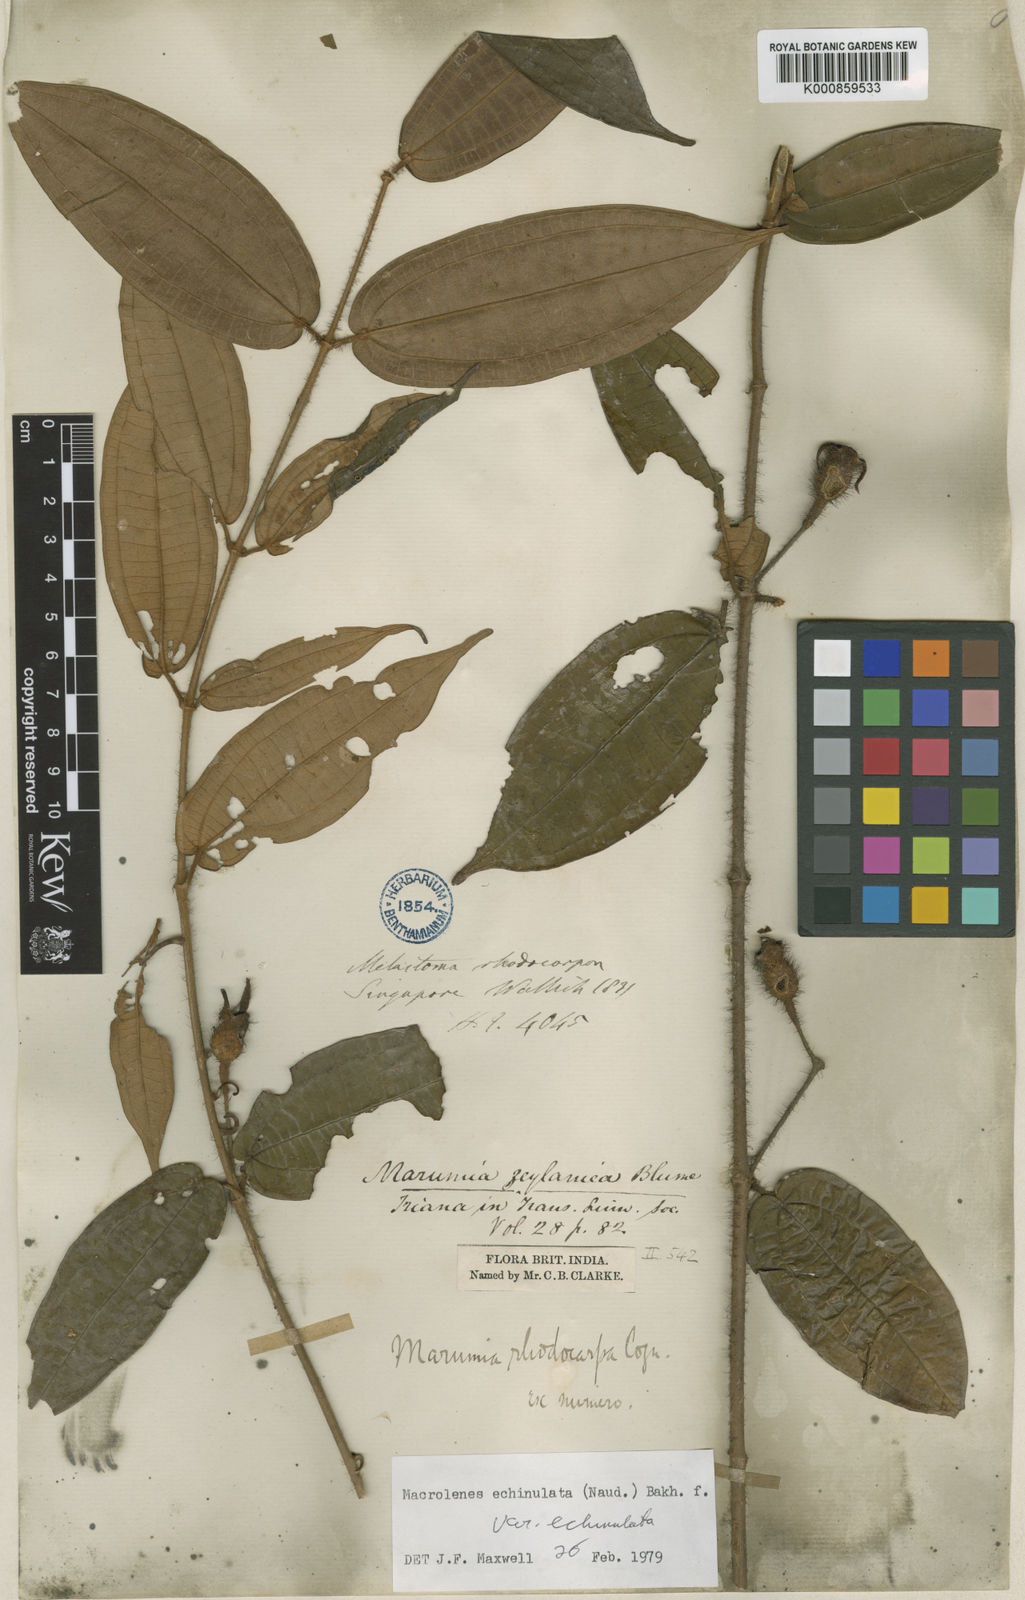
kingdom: Plantae
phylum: Tracheophyta
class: Magnoliopsida
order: Myrtales
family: Melastomataceae
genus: Macrolenes
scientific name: Macrolenes echinulata
